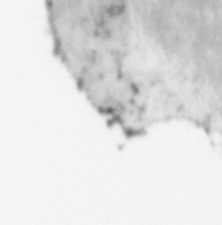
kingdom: Animalia
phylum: Chordata
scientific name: Chordata
